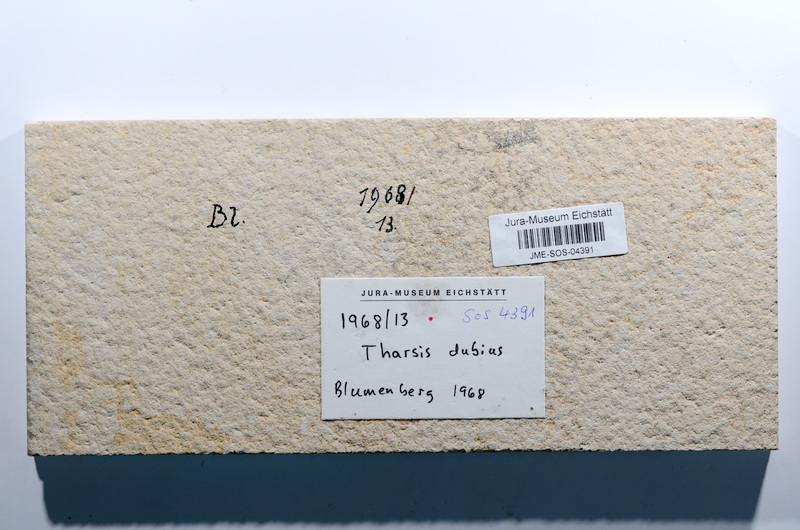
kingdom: Animalia
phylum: Chordata
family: Ascalaboidae
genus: Tharsis
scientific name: Tharsis dubius
